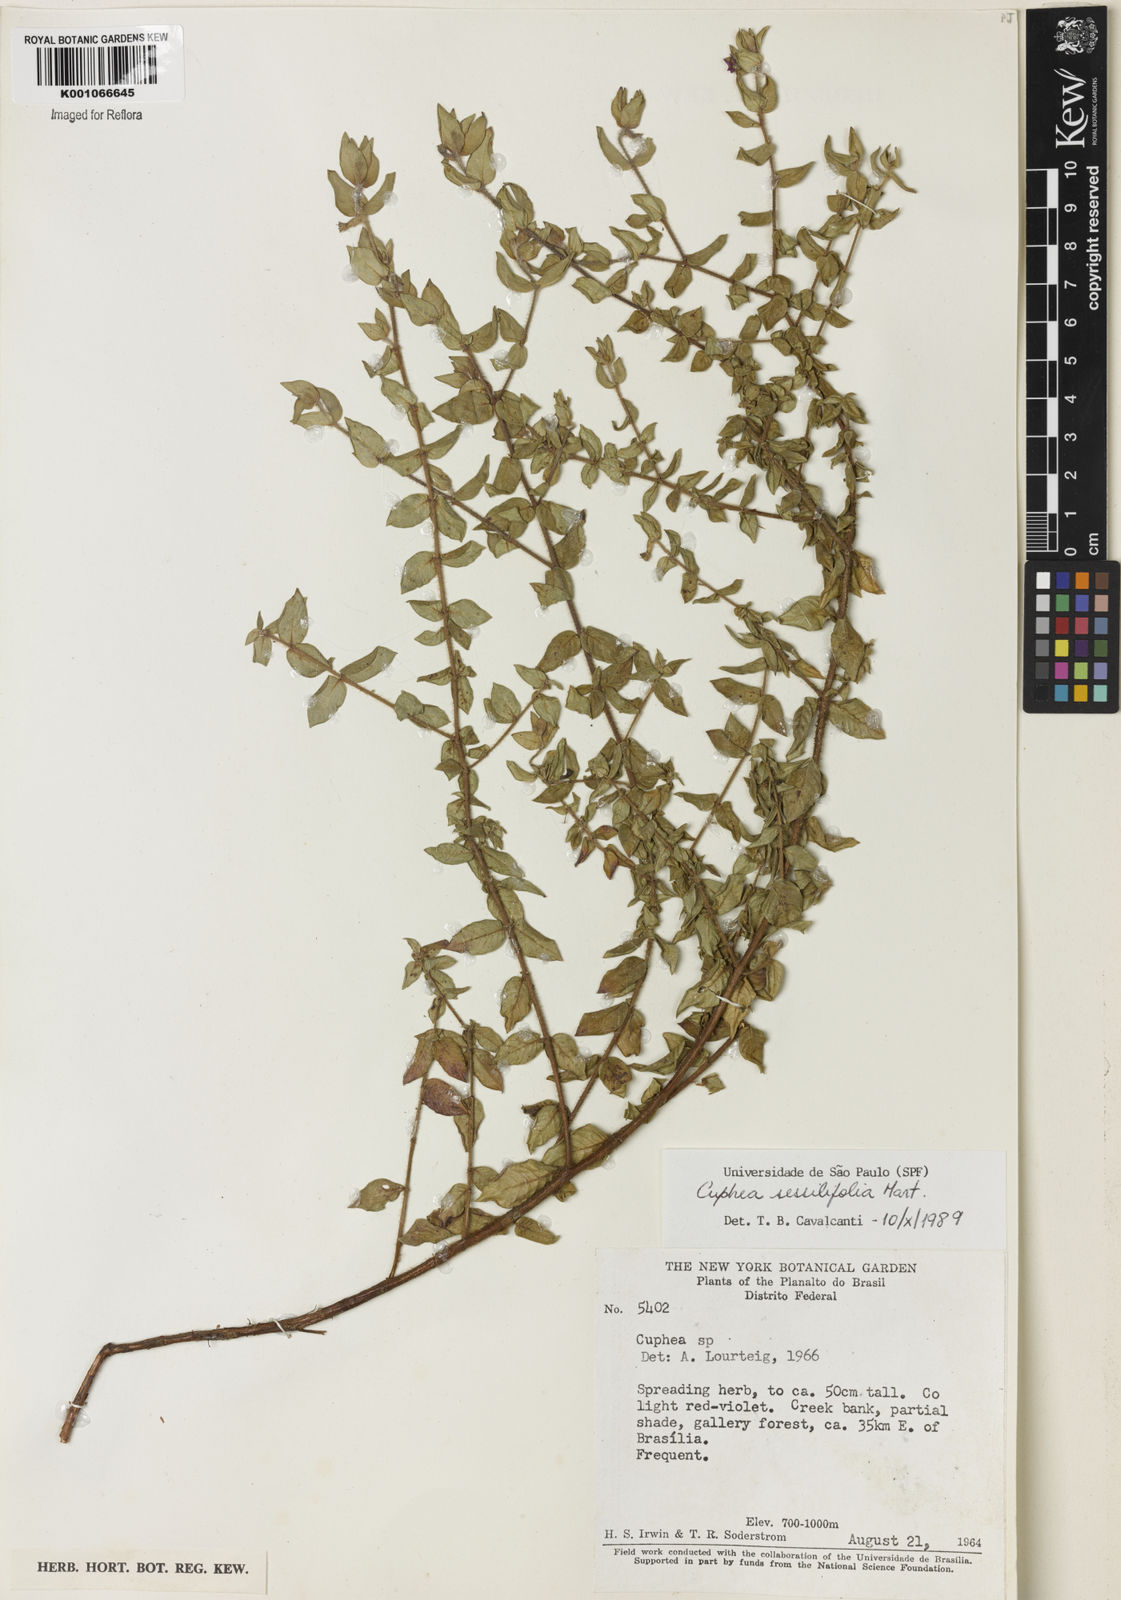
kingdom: Plantae
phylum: Tracheophyta
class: Magnoliopsida
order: Myrtales
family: Lythraceae
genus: Cuphea
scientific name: Cuphea
